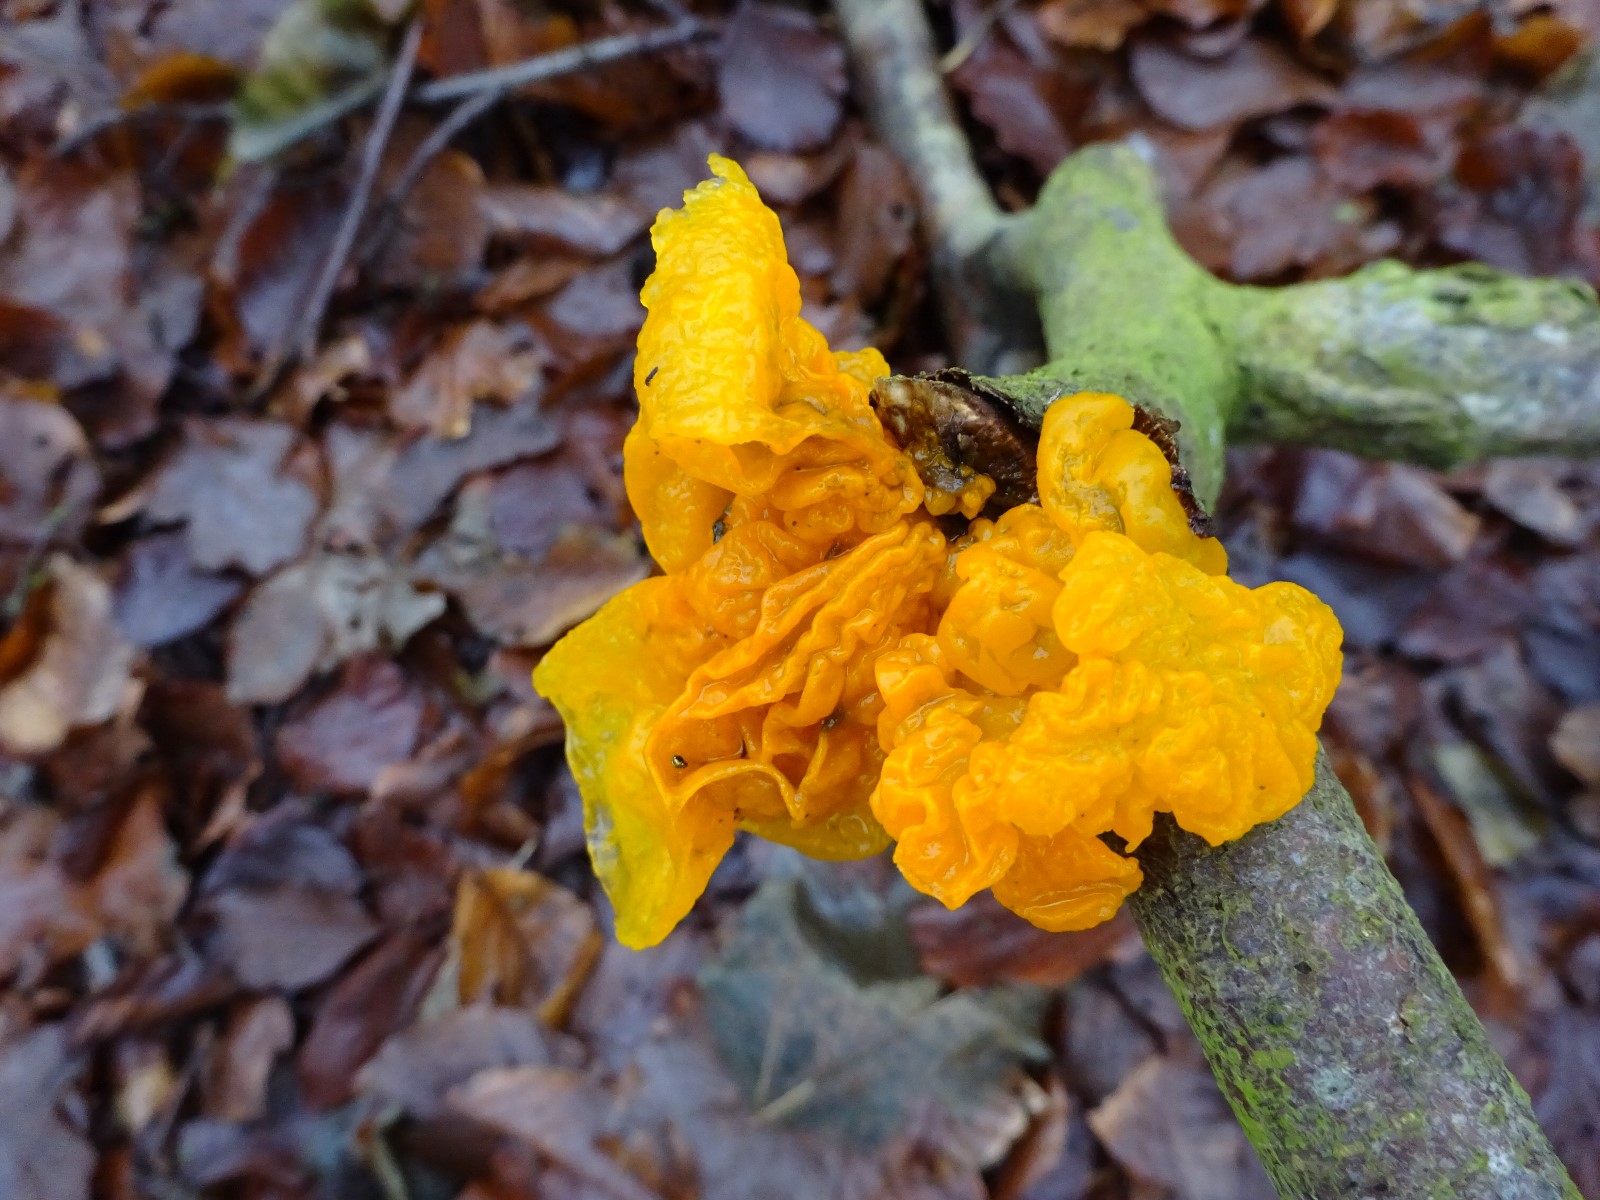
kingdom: Fungi
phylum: Basidiomycota
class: Tremellomycetes
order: Tremellales
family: Tremellaceae
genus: Tremella
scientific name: Tremella mesenterica
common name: gul bævresvamp
